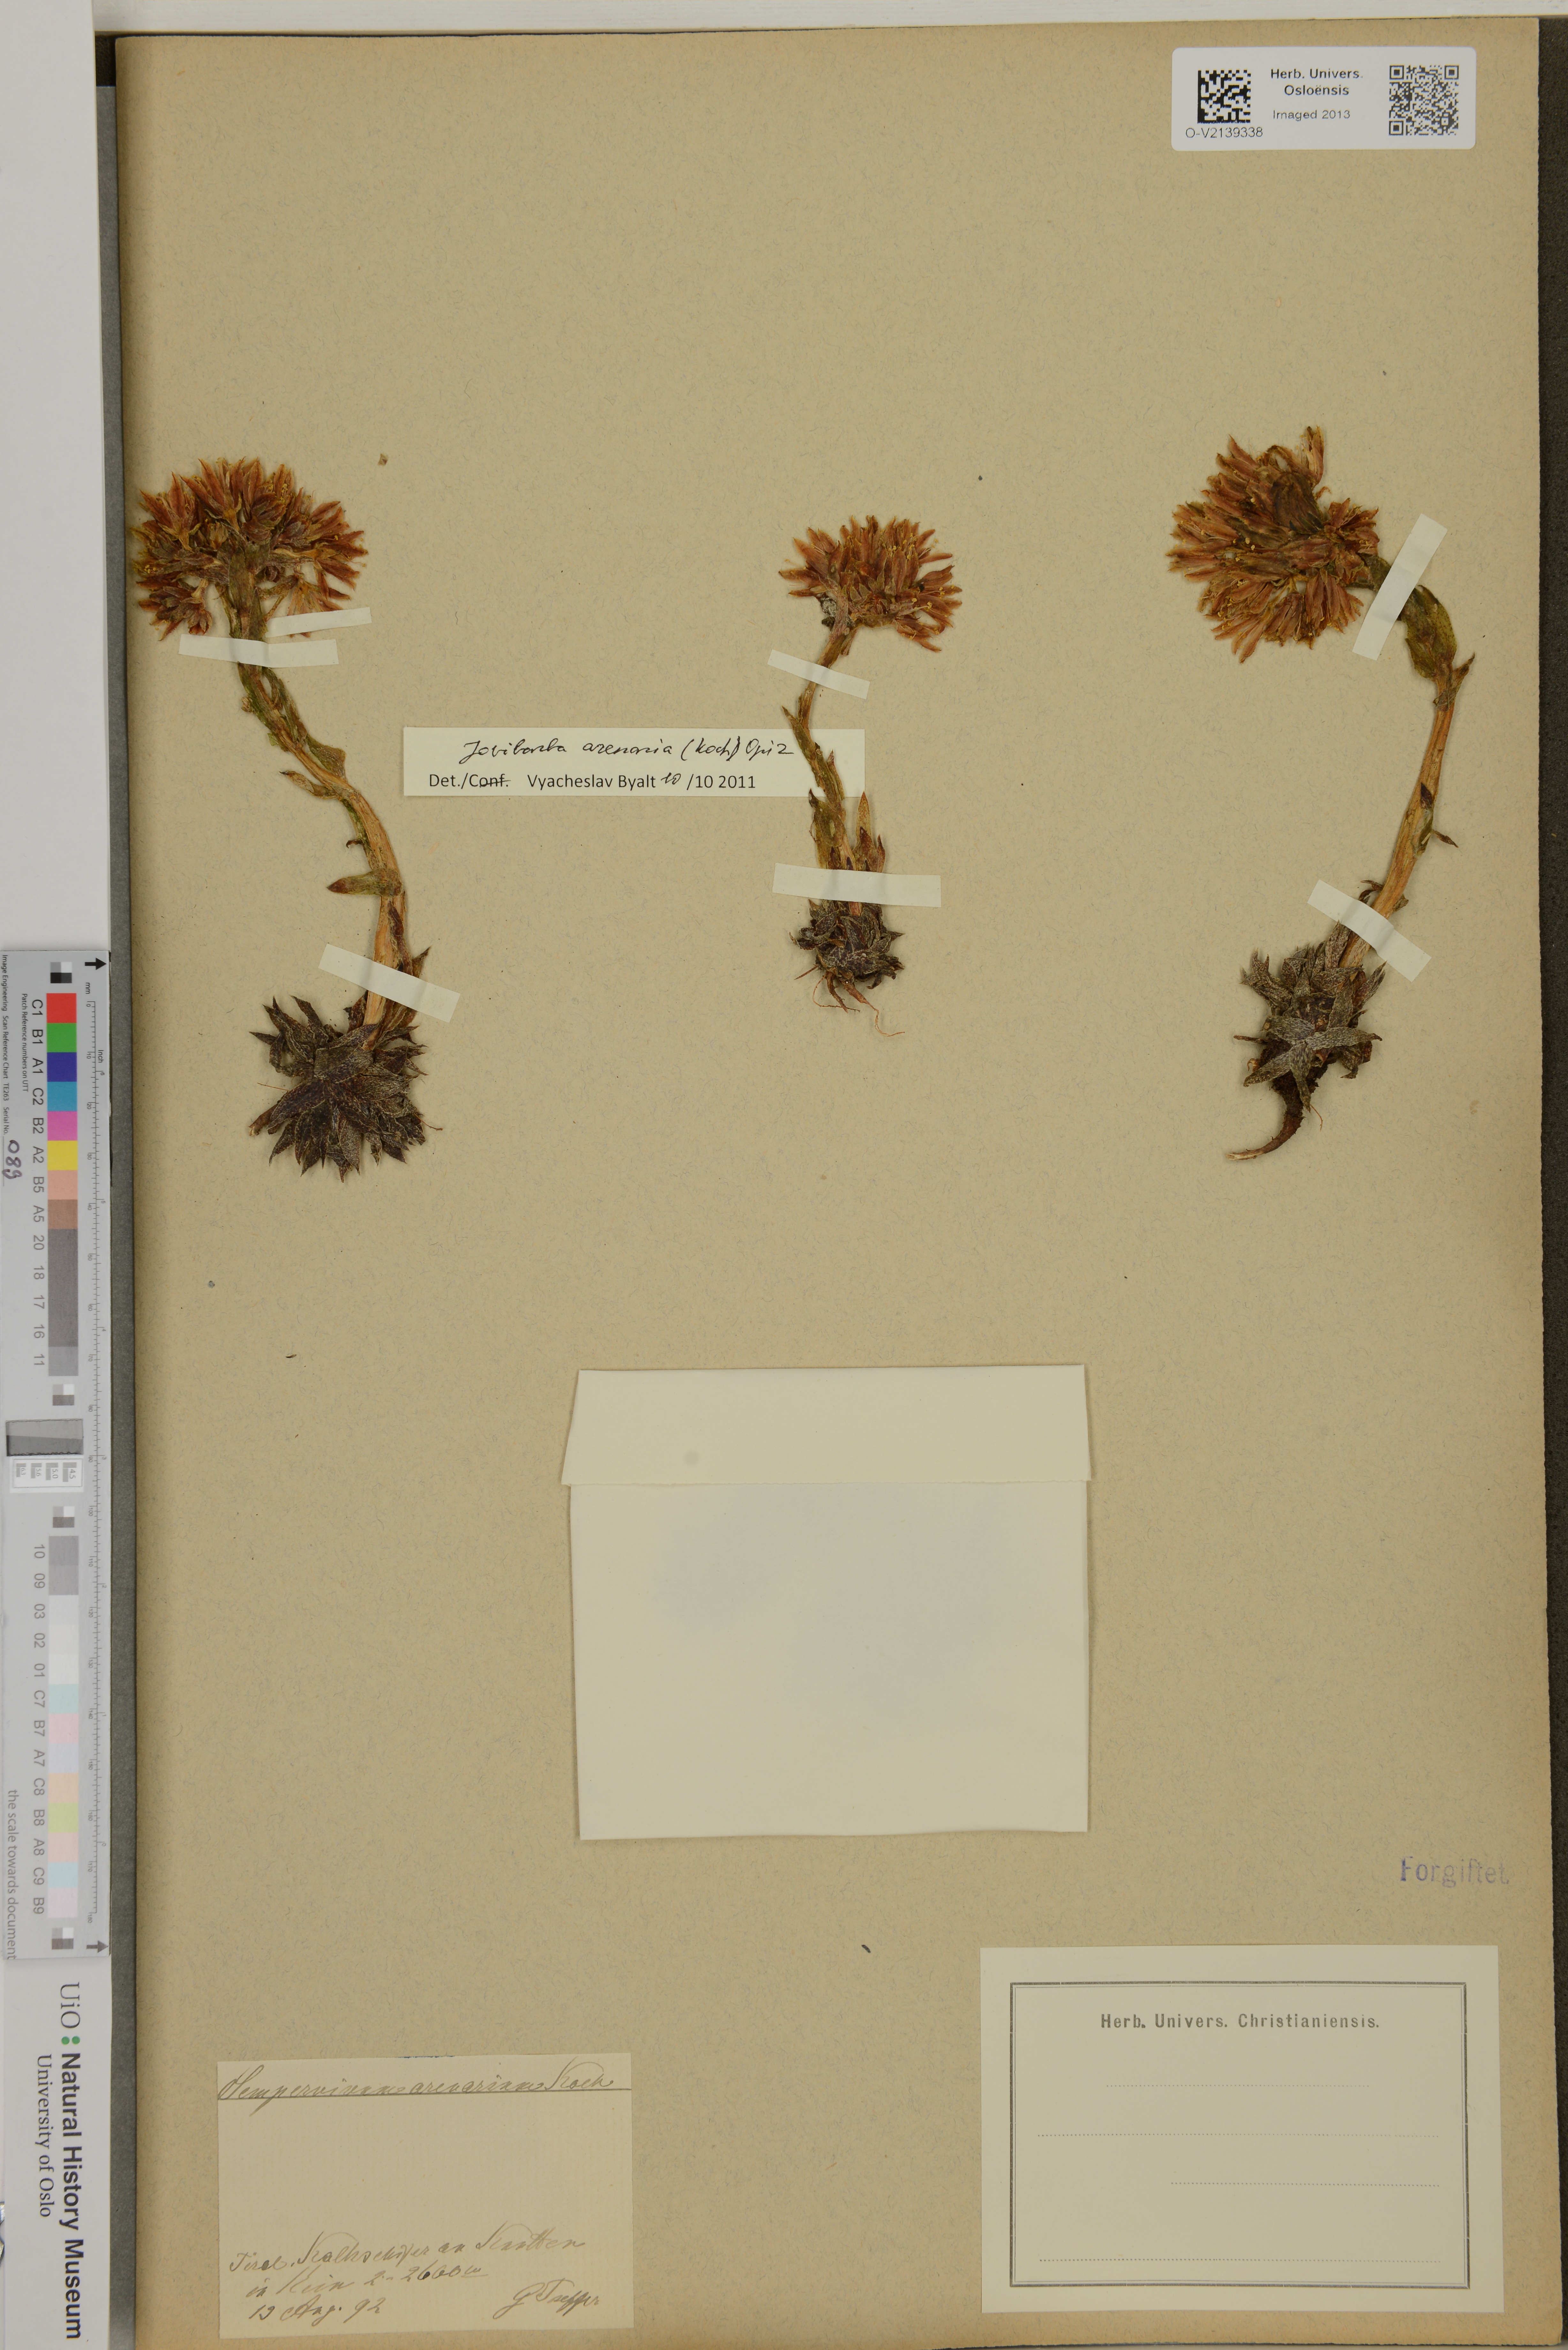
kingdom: Plantae
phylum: Tracheophyta
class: Magnoliopsida
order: Saxifragales
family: Crassulaceae
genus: Sempervivum
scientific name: Sempervivum
